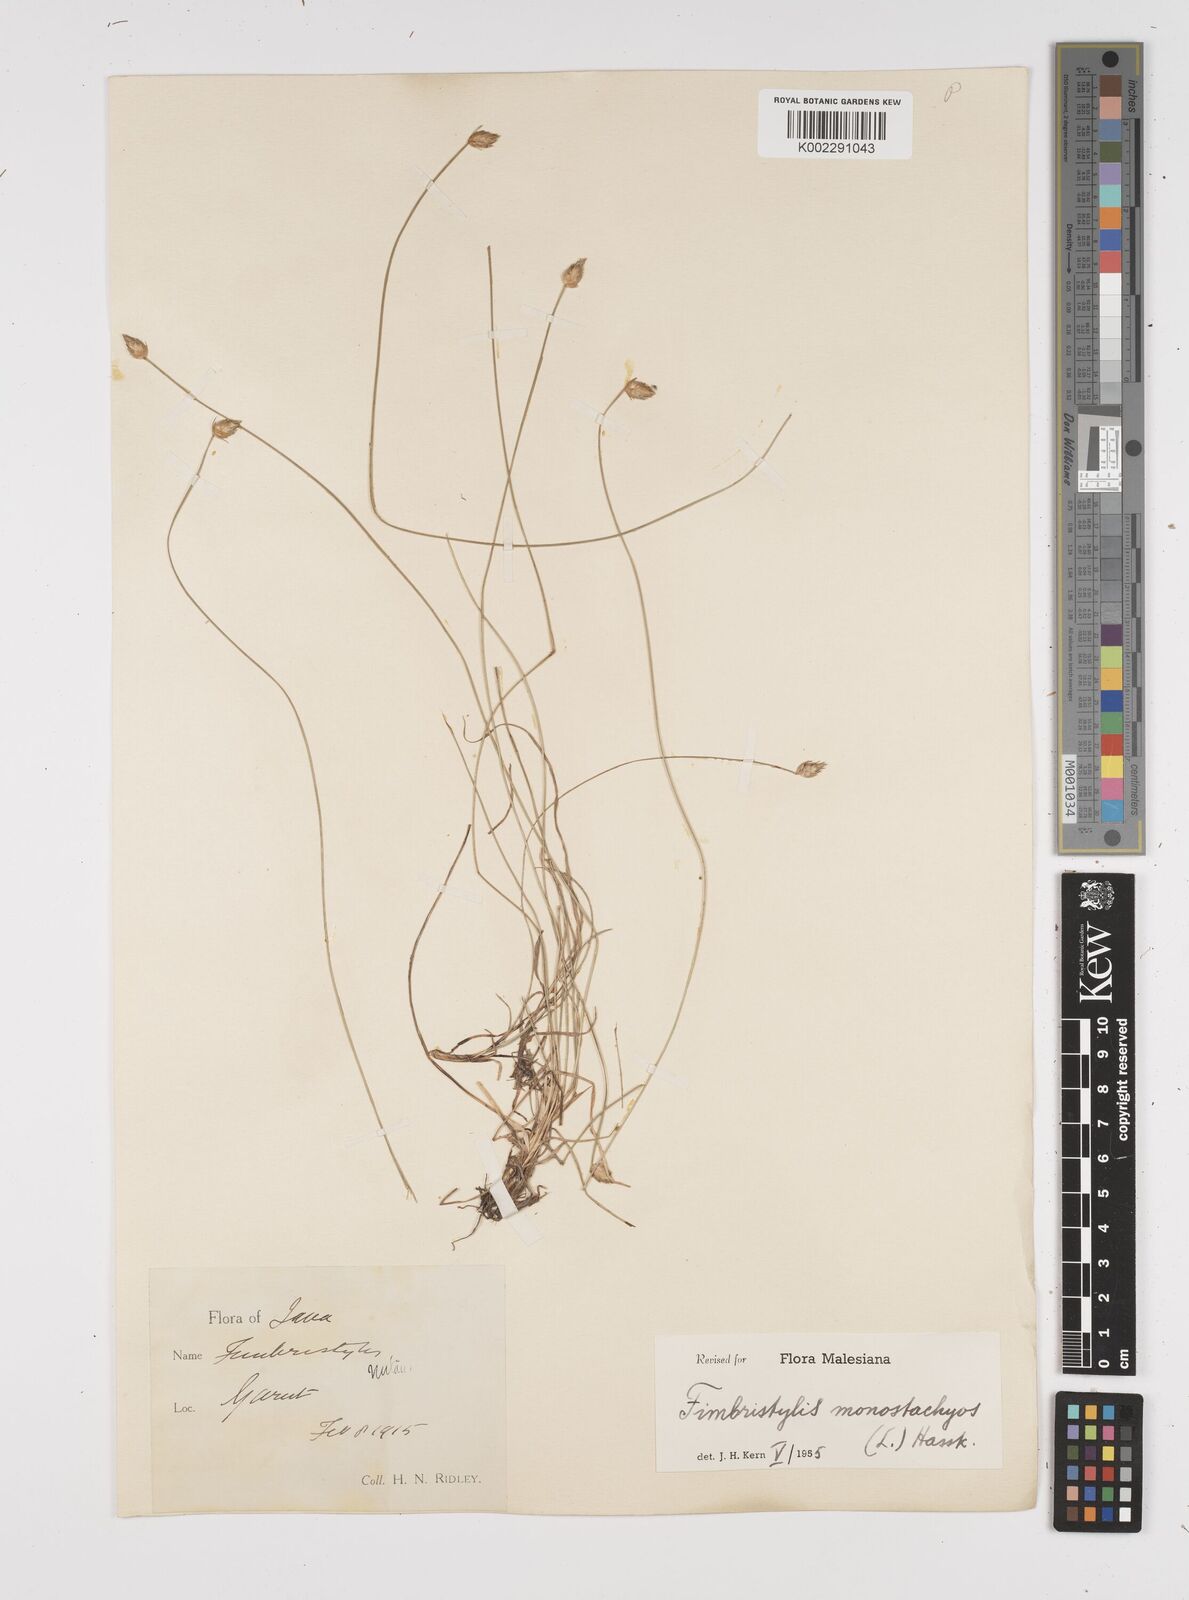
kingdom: Plantae
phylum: Tracheophyta
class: Liliopsida
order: Poales
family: Cyperaceae
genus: Abildgaardia
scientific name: Abildgaardia ovata
